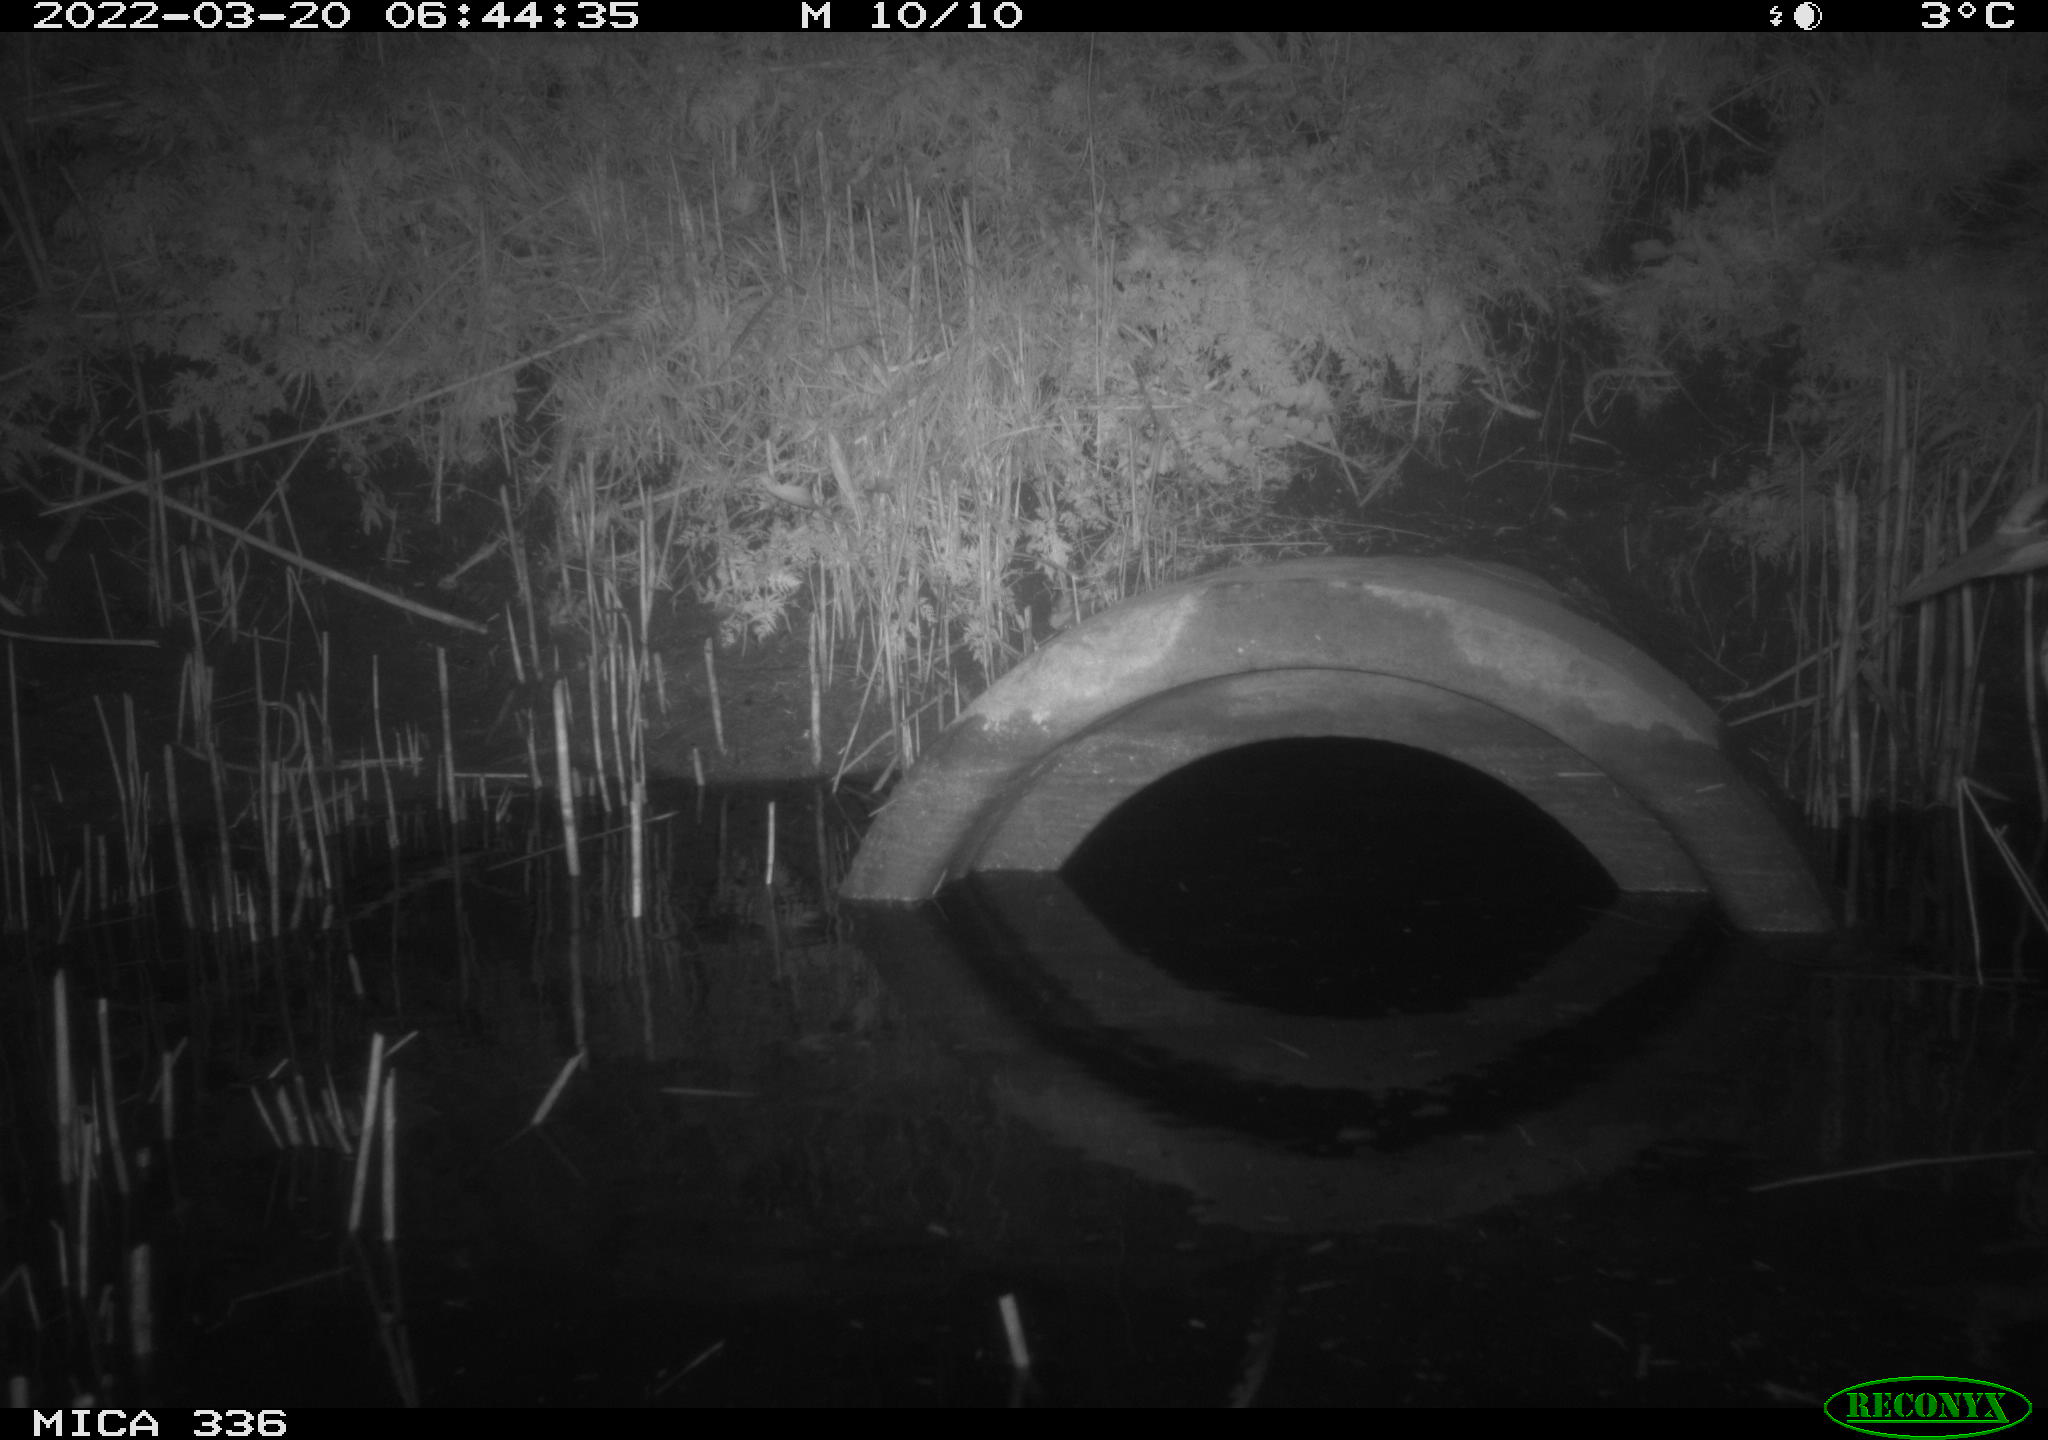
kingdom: Animalia
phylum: Chordata
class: Aves
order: Pelecaniformes
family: Ardeidae
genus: Ardea
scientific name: Ardea cinerea
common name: Grey heron
